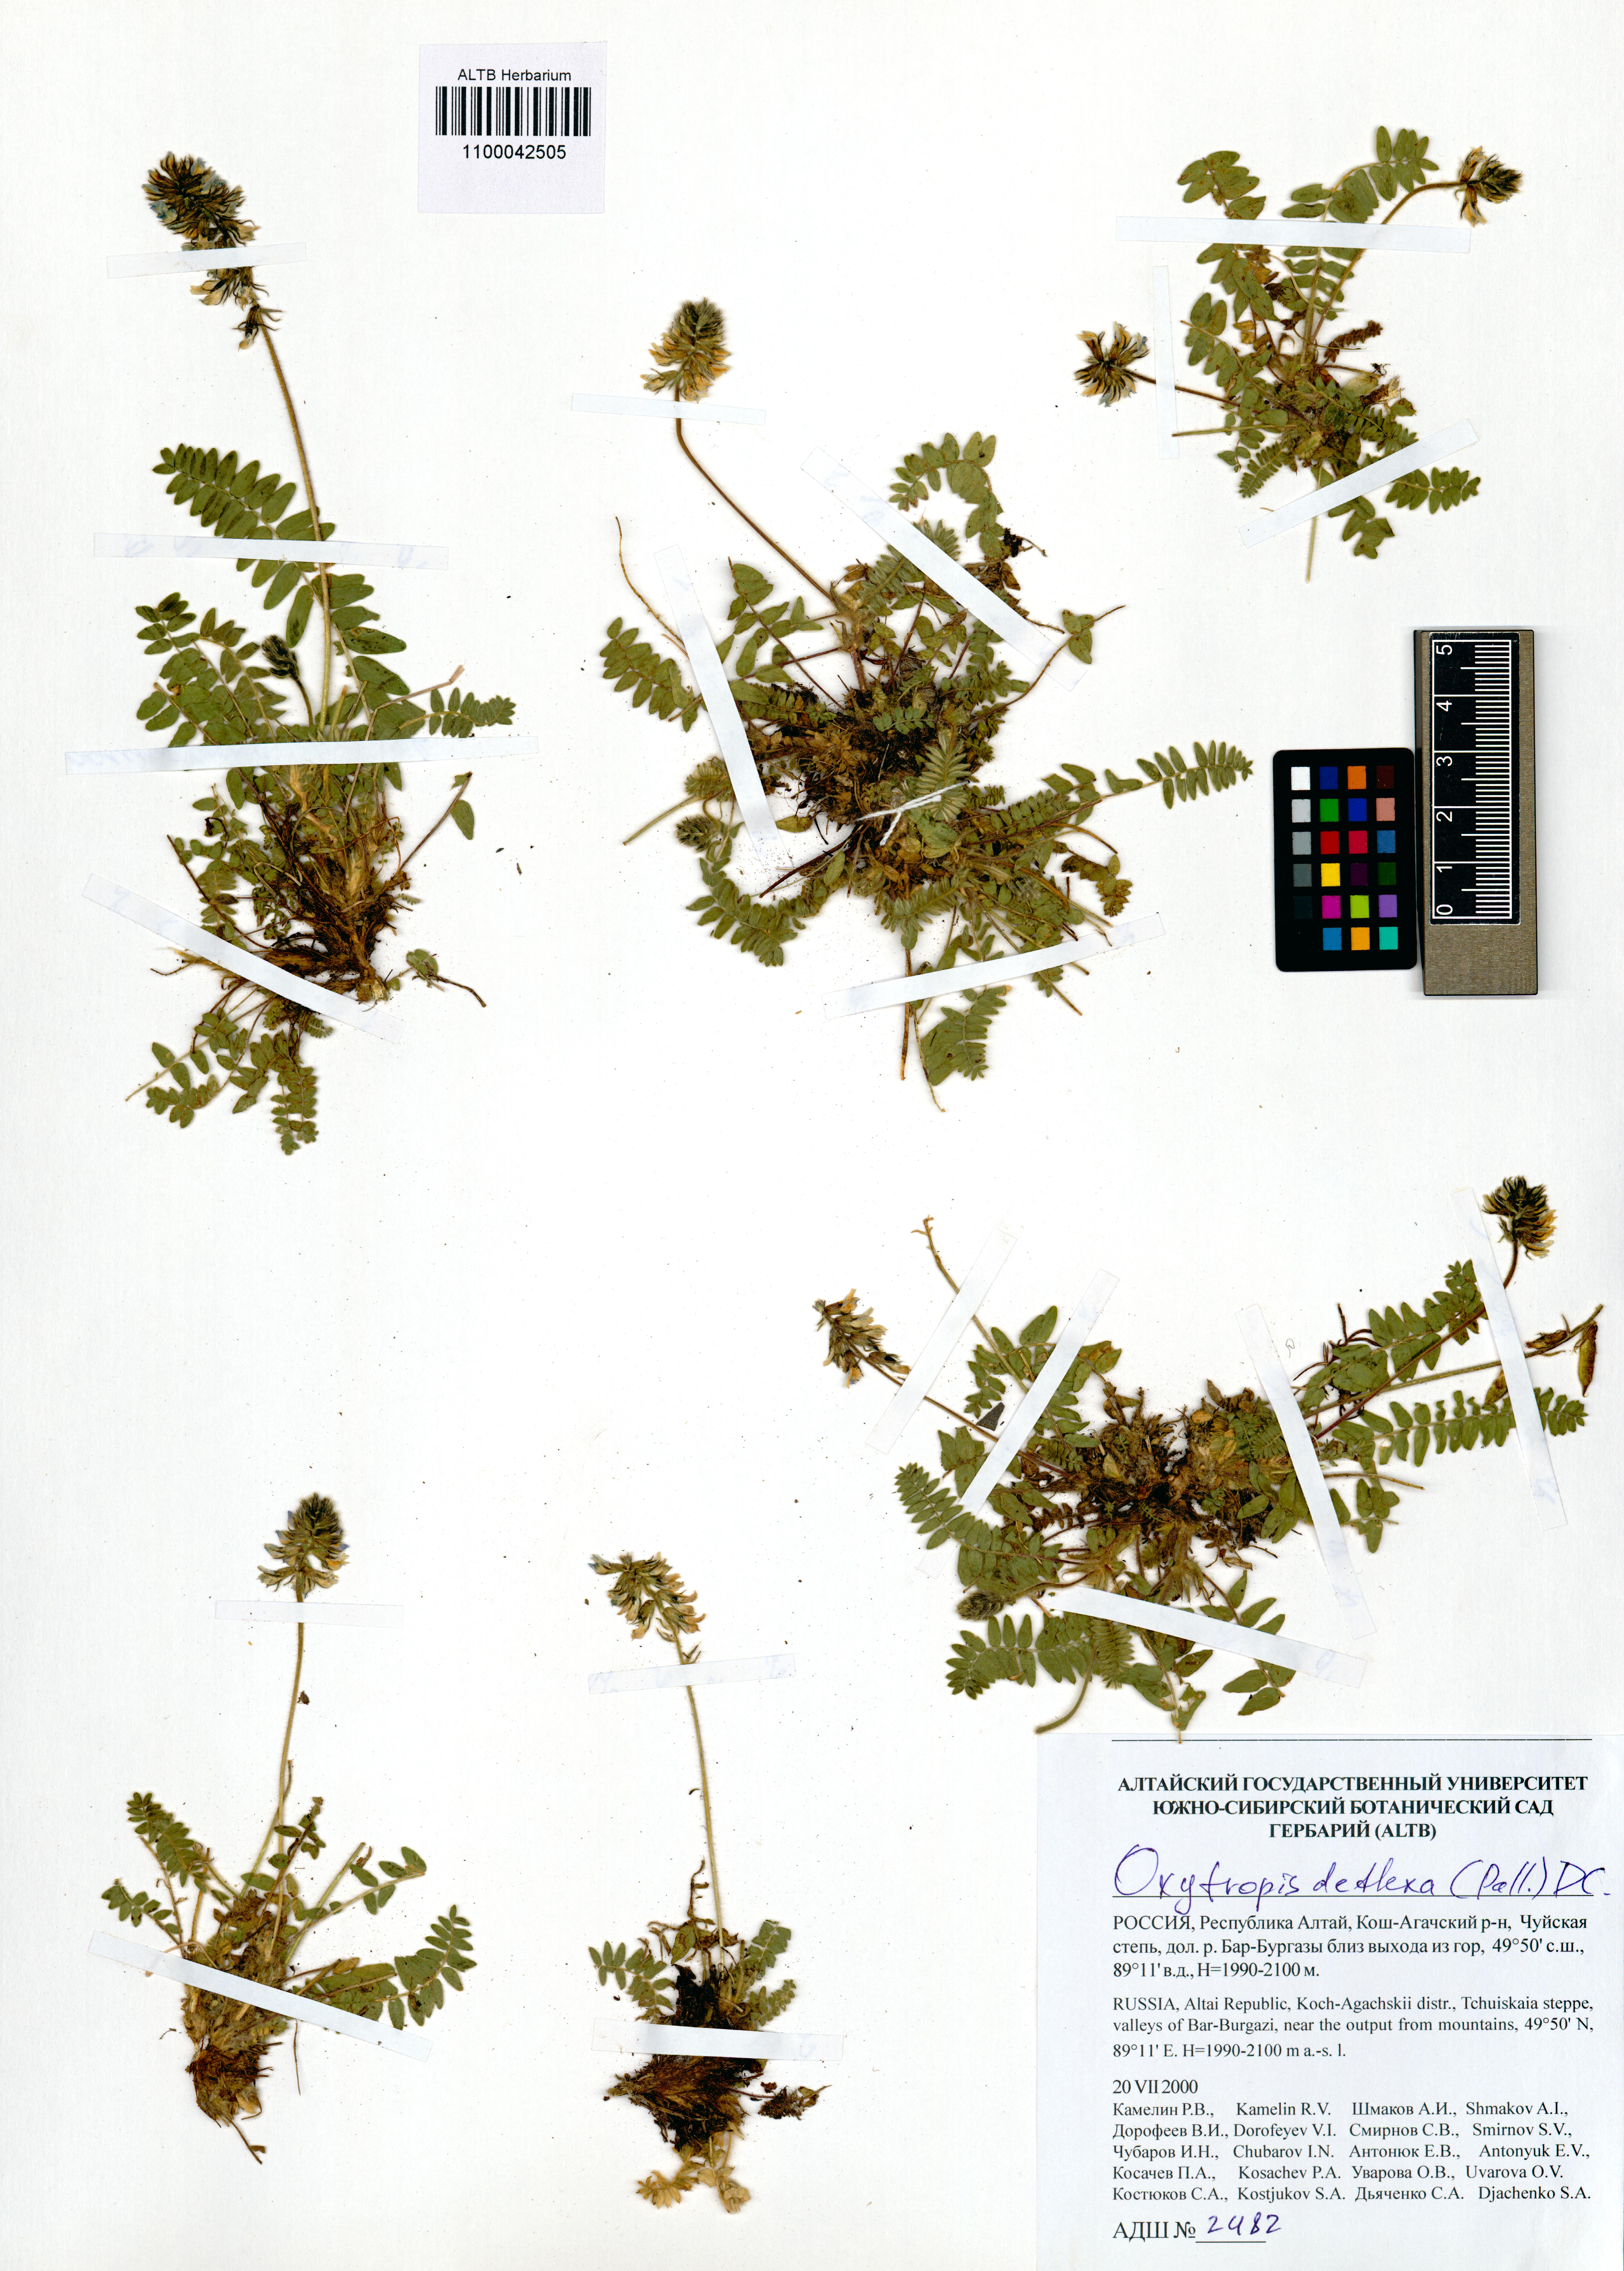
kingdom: Plantae
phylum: Tracheophyta
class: Magnoliopsida
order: Fabales
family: Fabaceae
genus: Oxytropis
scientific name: Oxytropis deflexa
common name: Stemmed oxytrope
